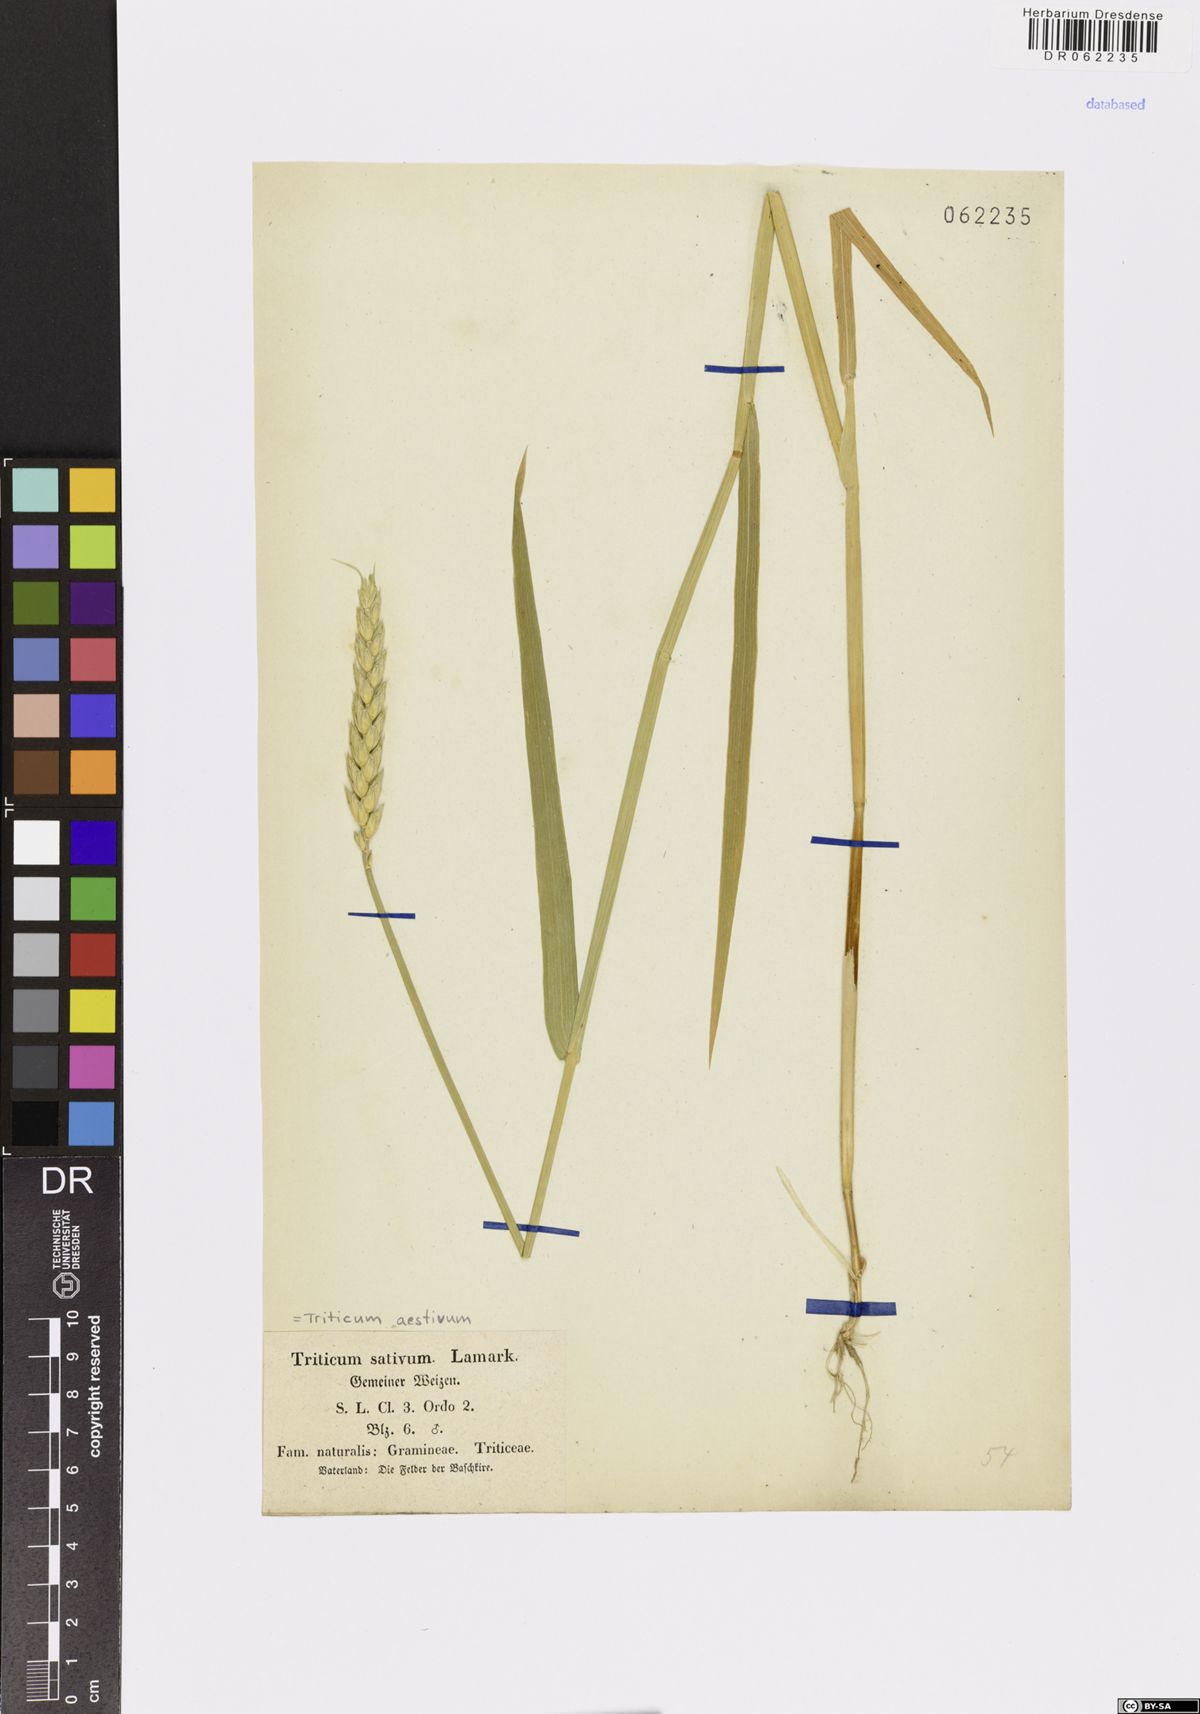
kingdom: Plantae
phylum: Tracheophyta
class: Liliopsida
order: Poales
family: Poaceae
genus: Triticum
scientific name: Triticum aestivum
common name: Common wheat
